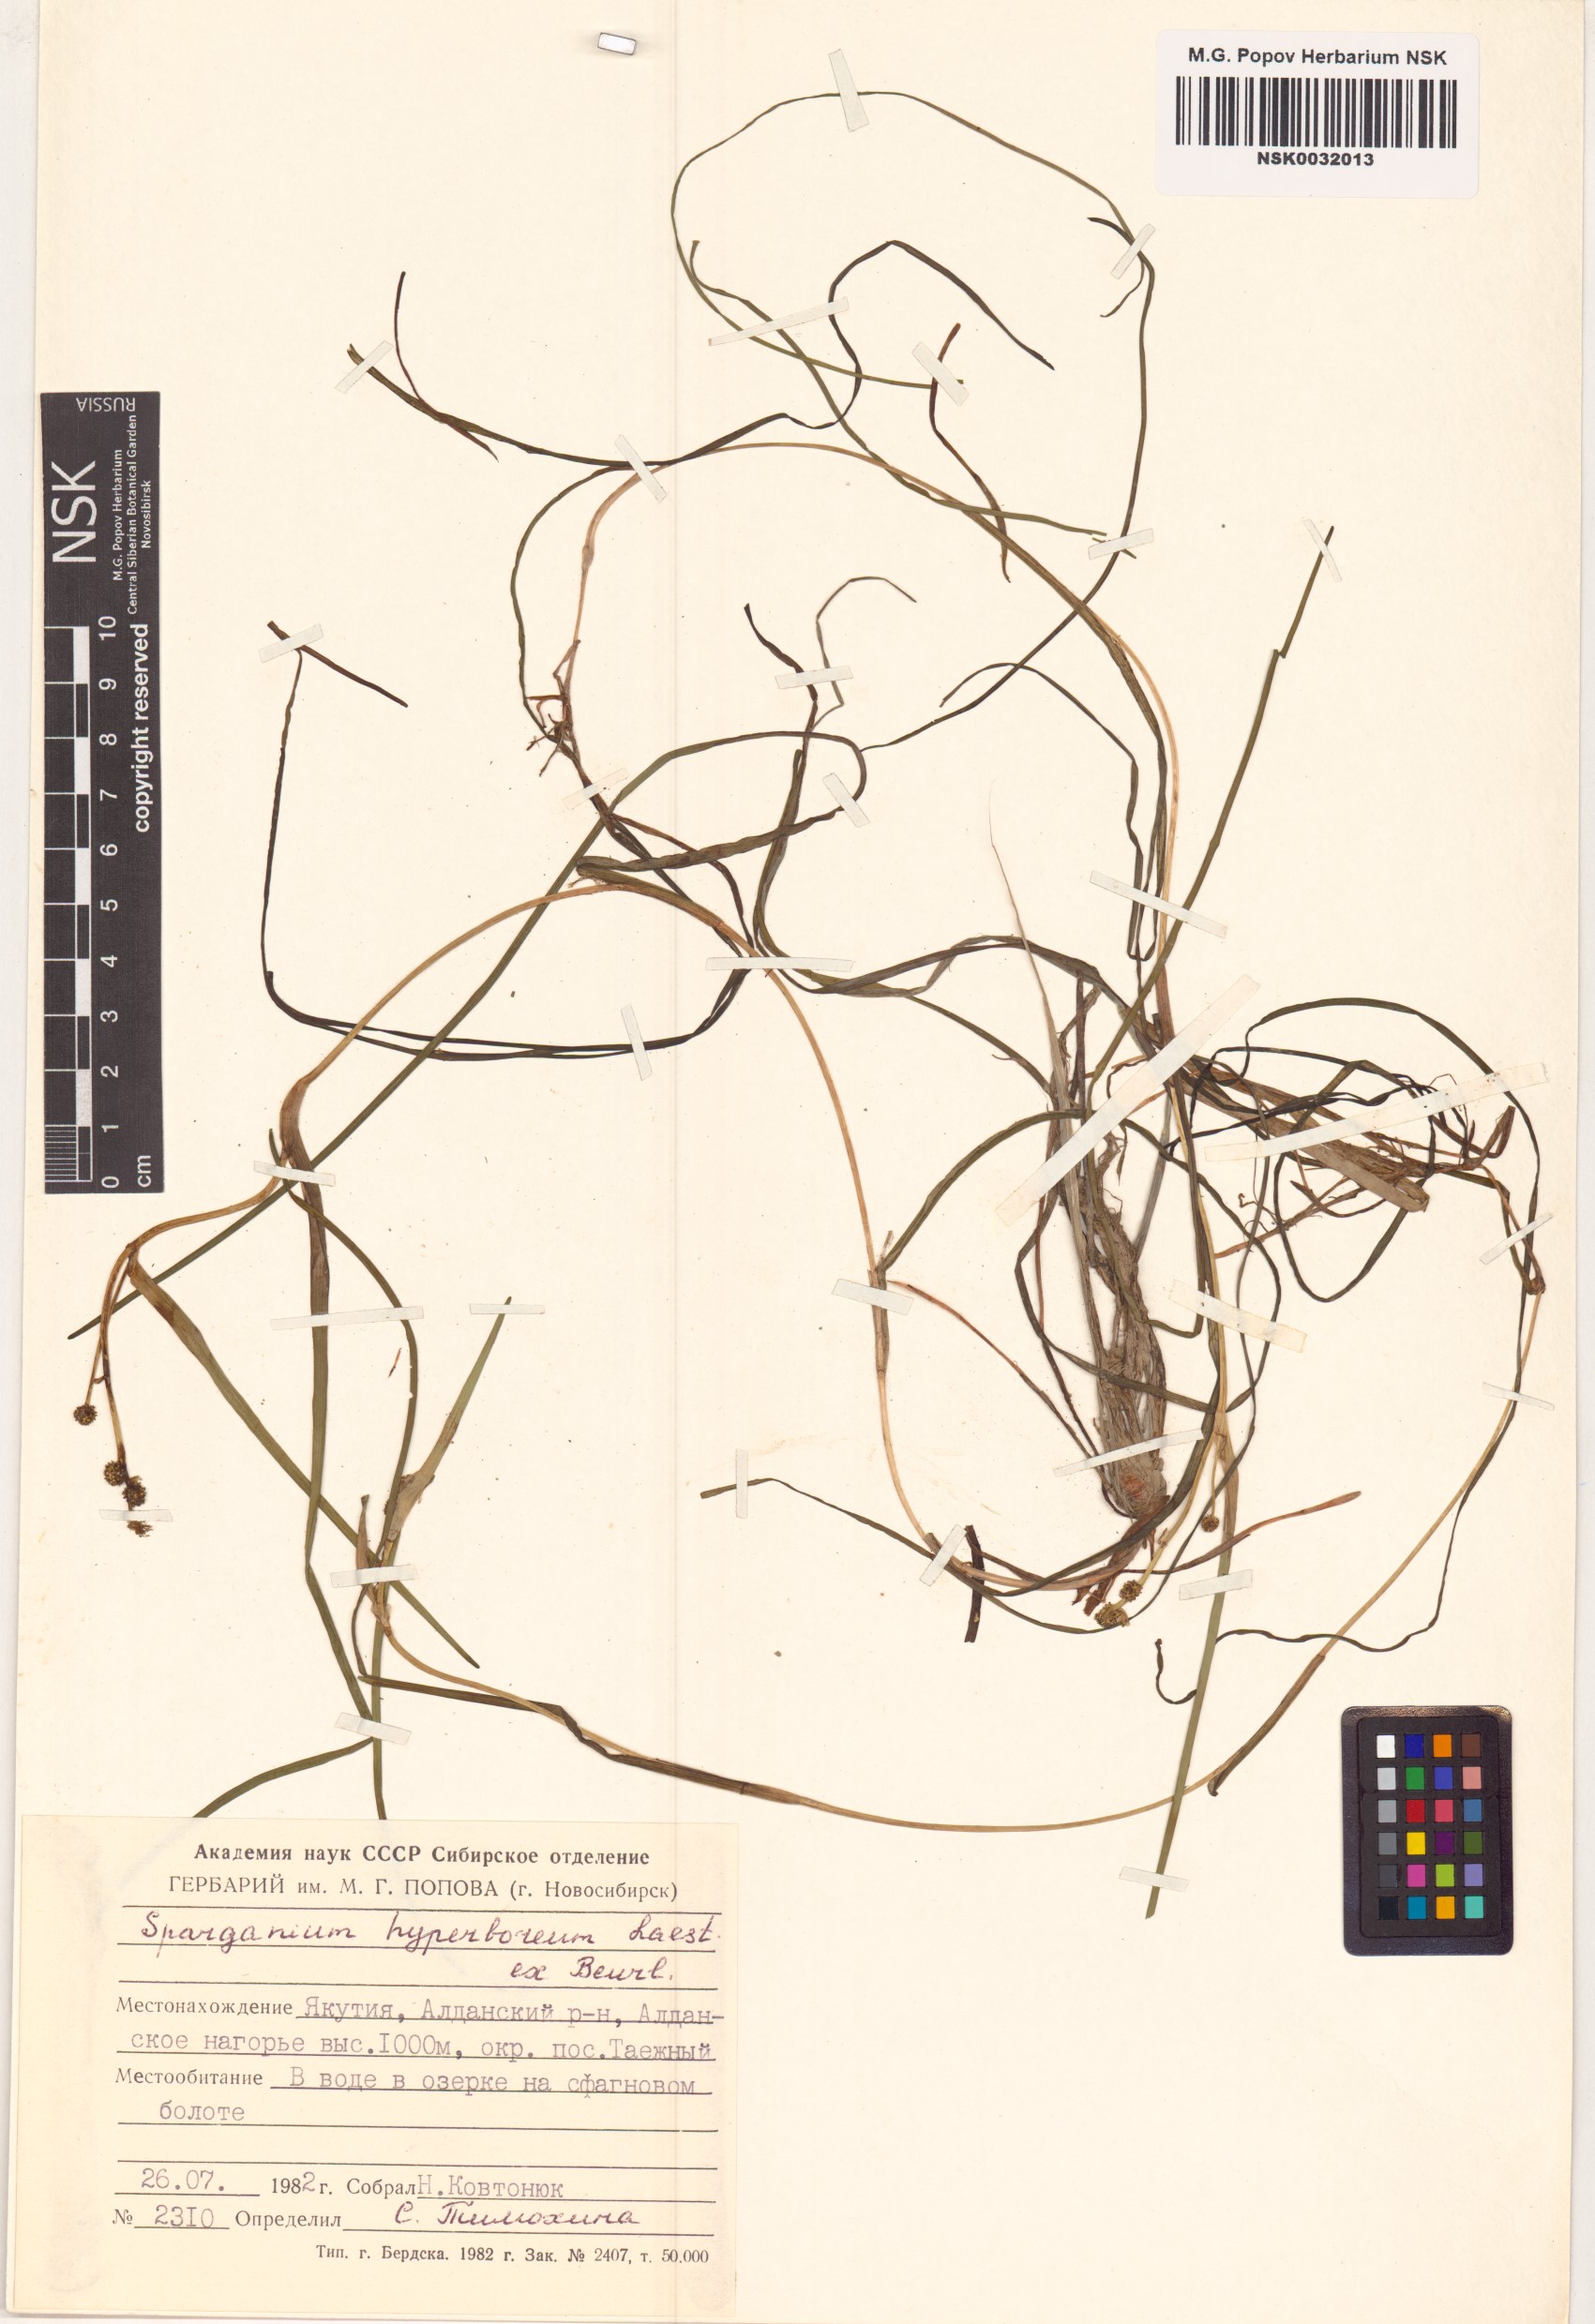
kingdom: Plantae
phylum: Tracheophyta
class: Liliopsida
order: Poales
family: Typhaceae
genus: Sparganium
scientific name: Sparganium hyperboreum
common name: Arctic burreed
